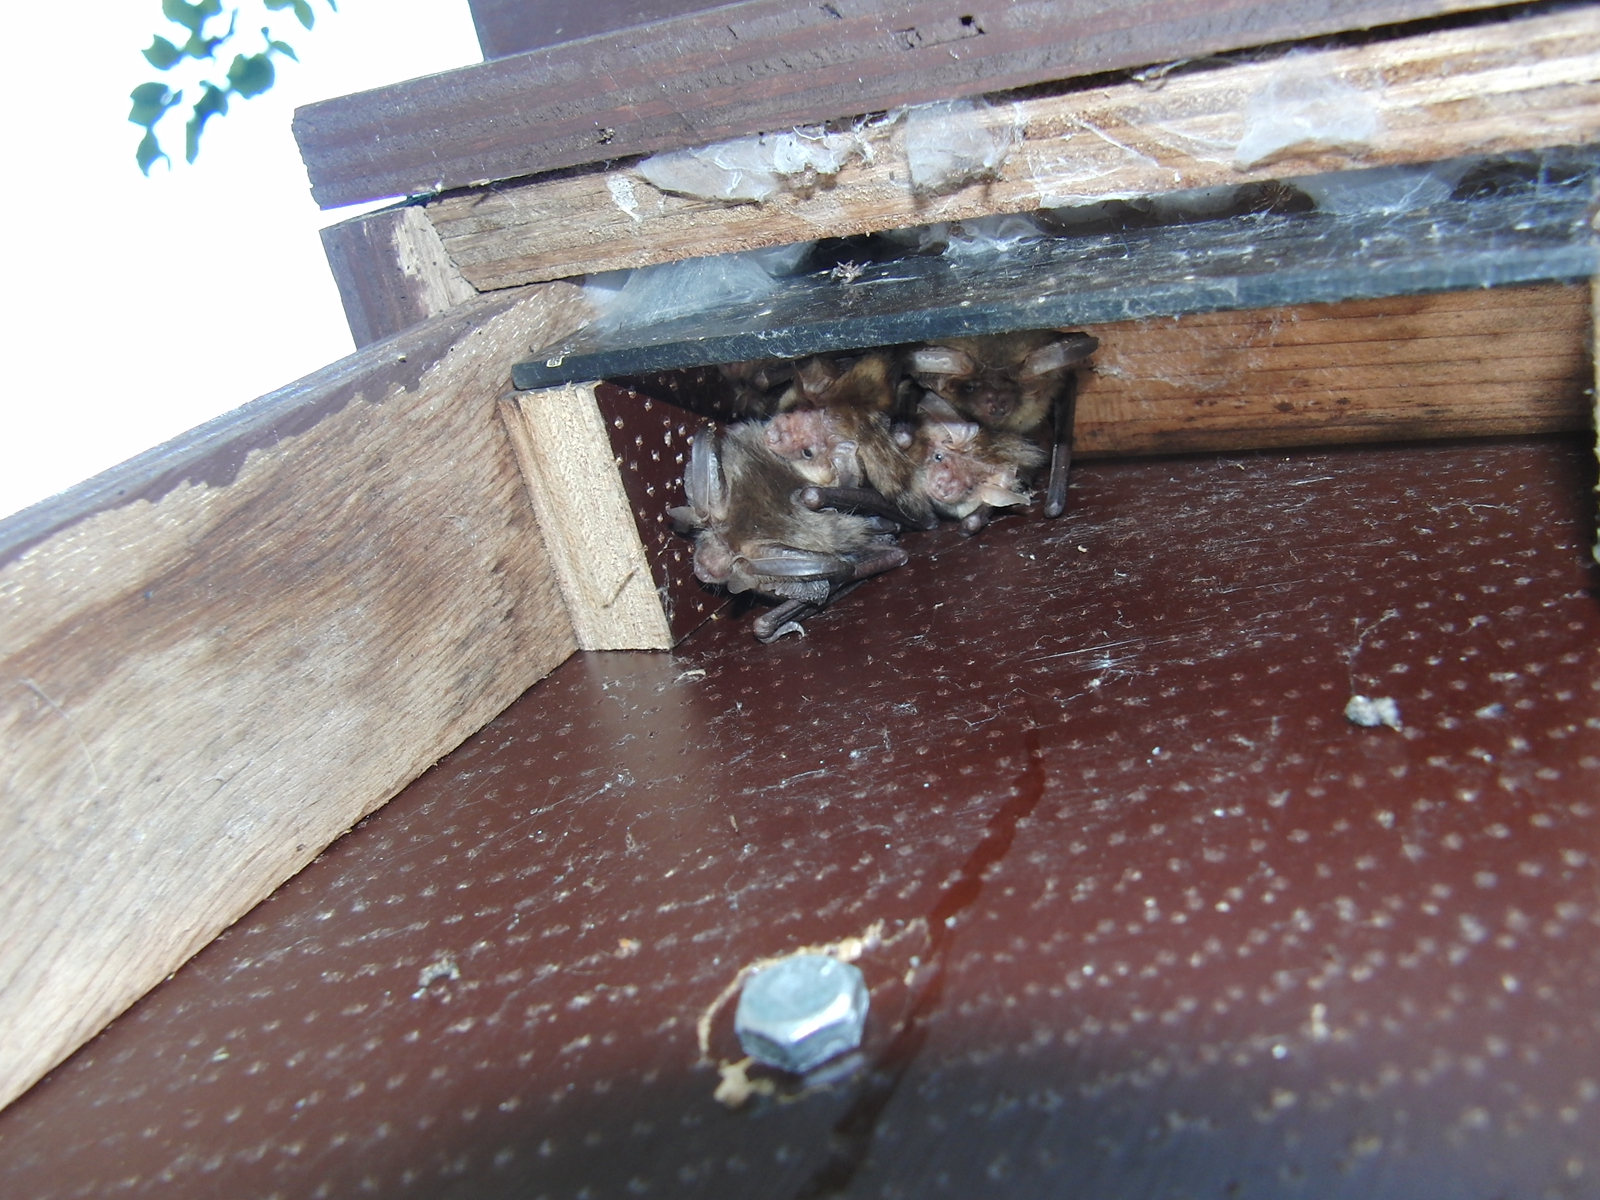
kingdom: Animalia
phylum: Chordata
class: Mammalia
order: Chiroptera
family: Vespertilionidae
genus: Plecotus
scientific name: Plecotus auritus
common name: Brown long-eared bat
